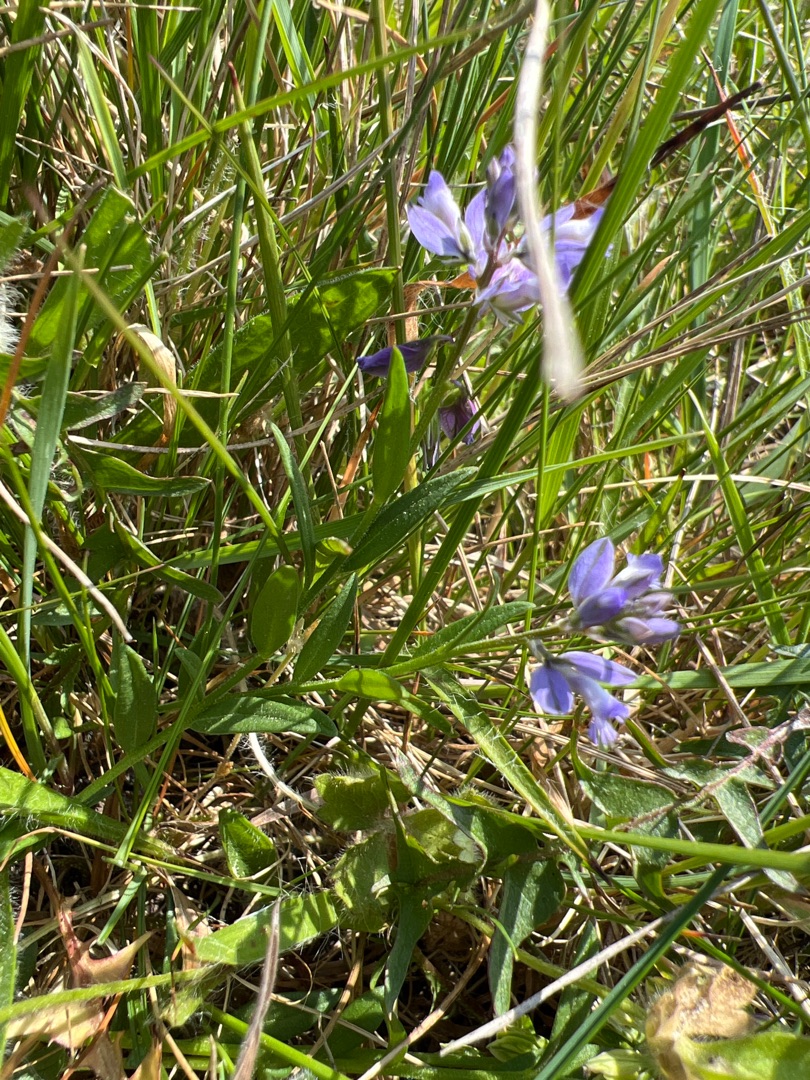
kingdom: Plantae
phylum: Tracheophyta
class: Magnoliopsida
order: Fabales
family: Polygalaceae
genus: Polygala
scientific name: Polygala vulgaris
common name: Almindelig mælkeurt
